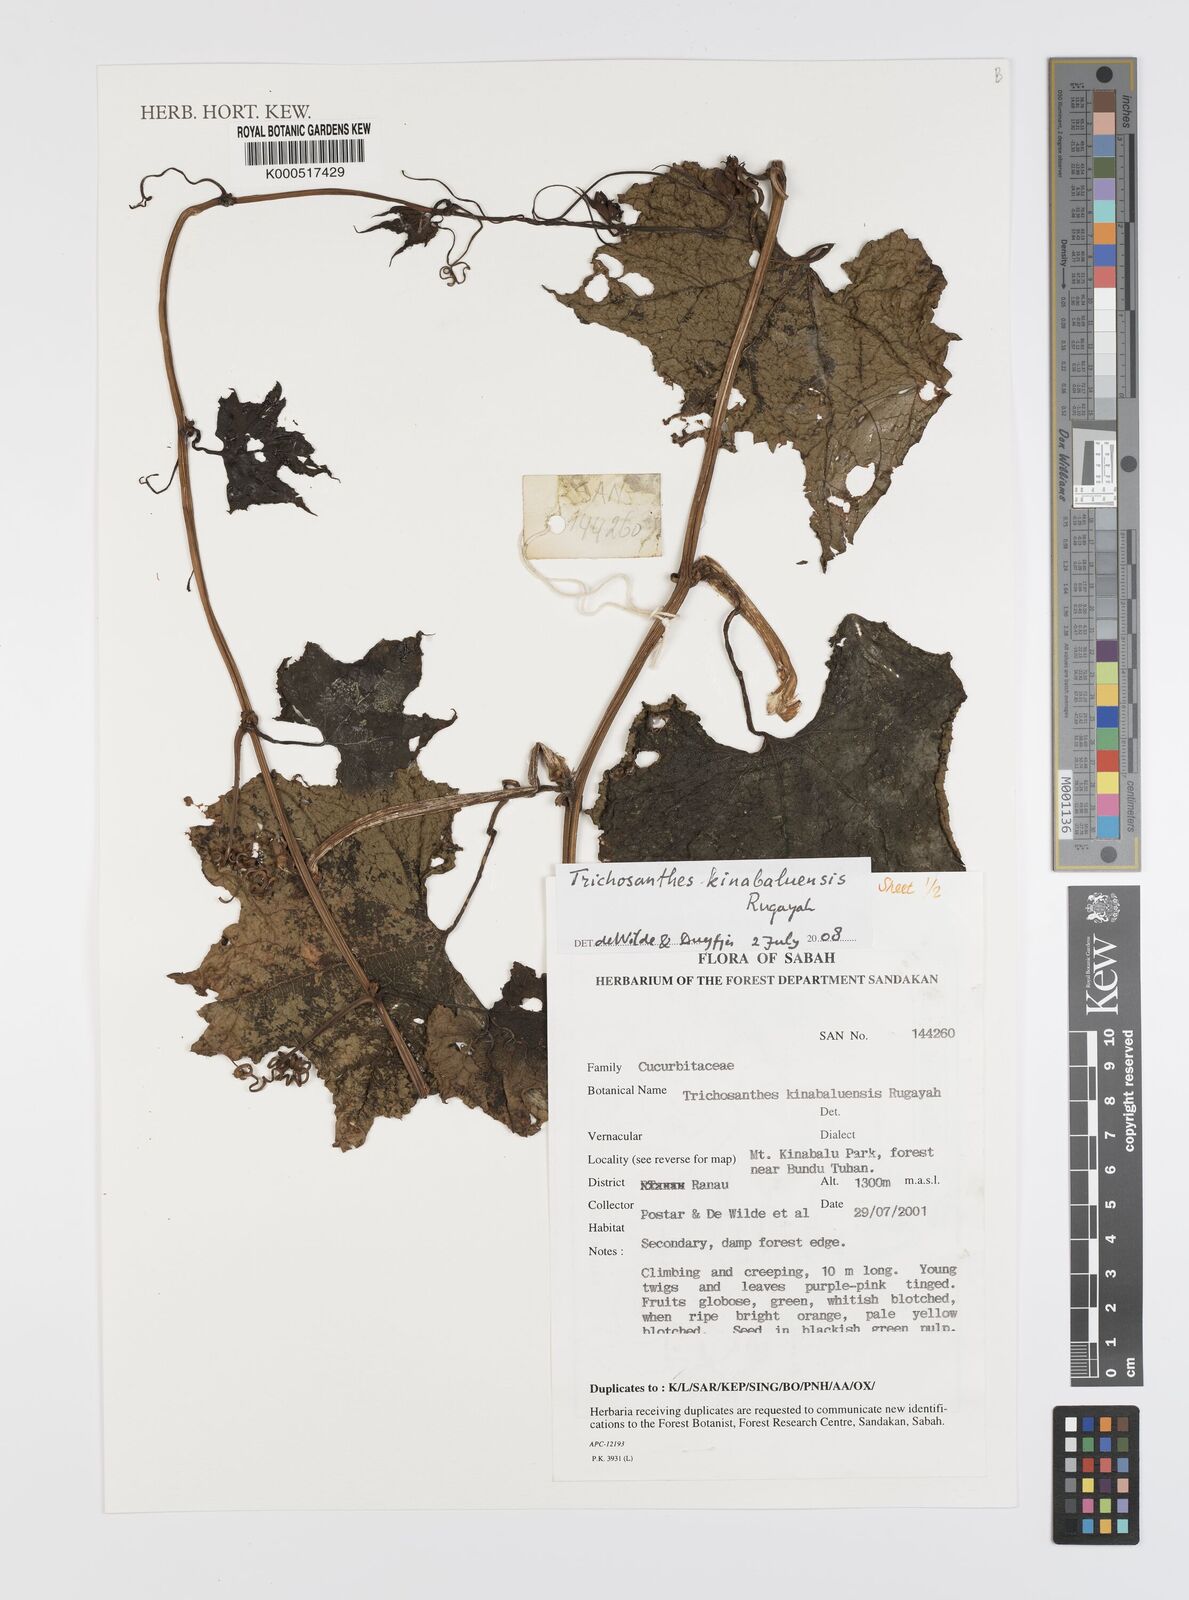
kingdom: Plantae
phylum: Tracheophyta
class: Magnoliopsida
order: Cucurbitales
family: Cucurbitaceae
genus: Trichosanthes
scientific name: Trichosanthes kinabaluensis
